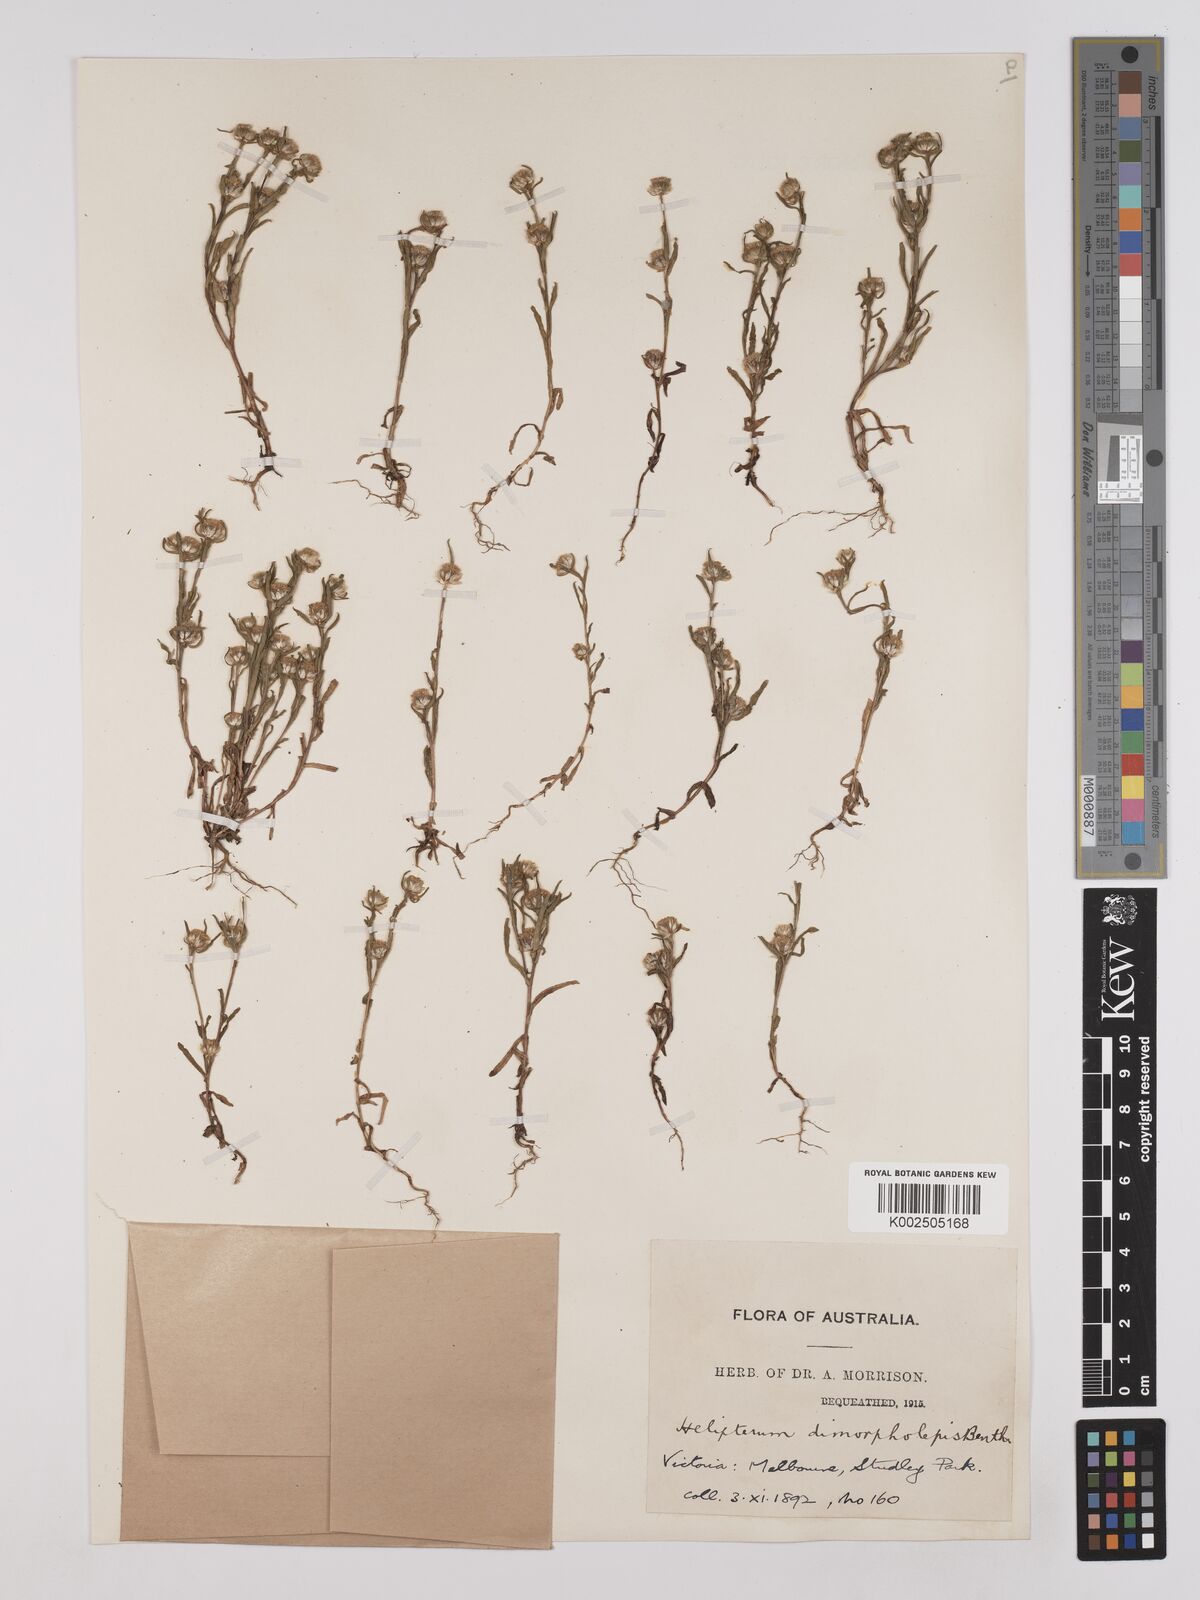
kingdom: Plantae
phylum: Tracheophyta
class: Magnoliopsida
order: Asterales
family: Asteraceae
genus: Triptilodiscus
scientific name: Triptilodiscus pygmaeus
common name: Common sunray
